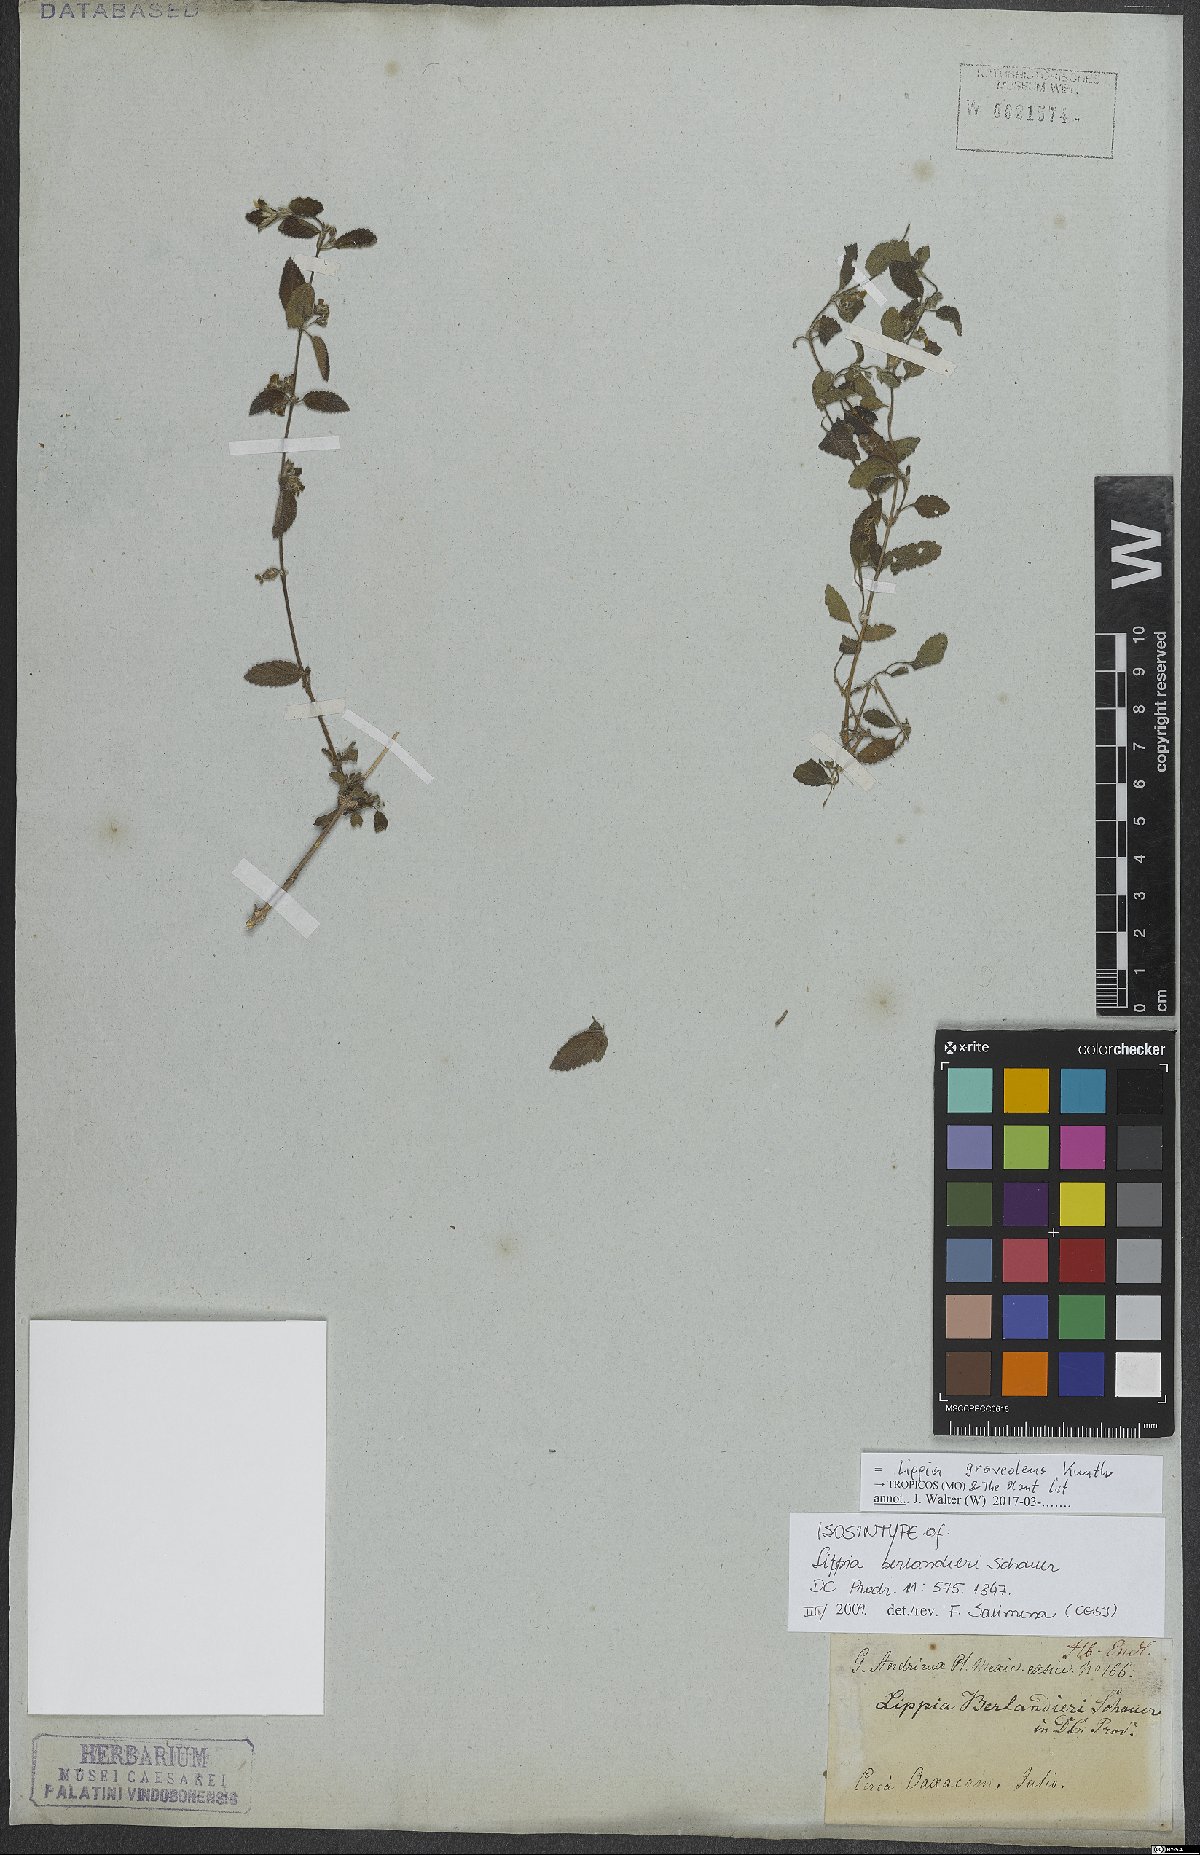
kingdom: Plantae
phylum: Tracheophyta
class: Magnoliopsida
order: Lamiales
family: Verbenaceae
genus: Lippia
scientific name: Lippia origanoides
